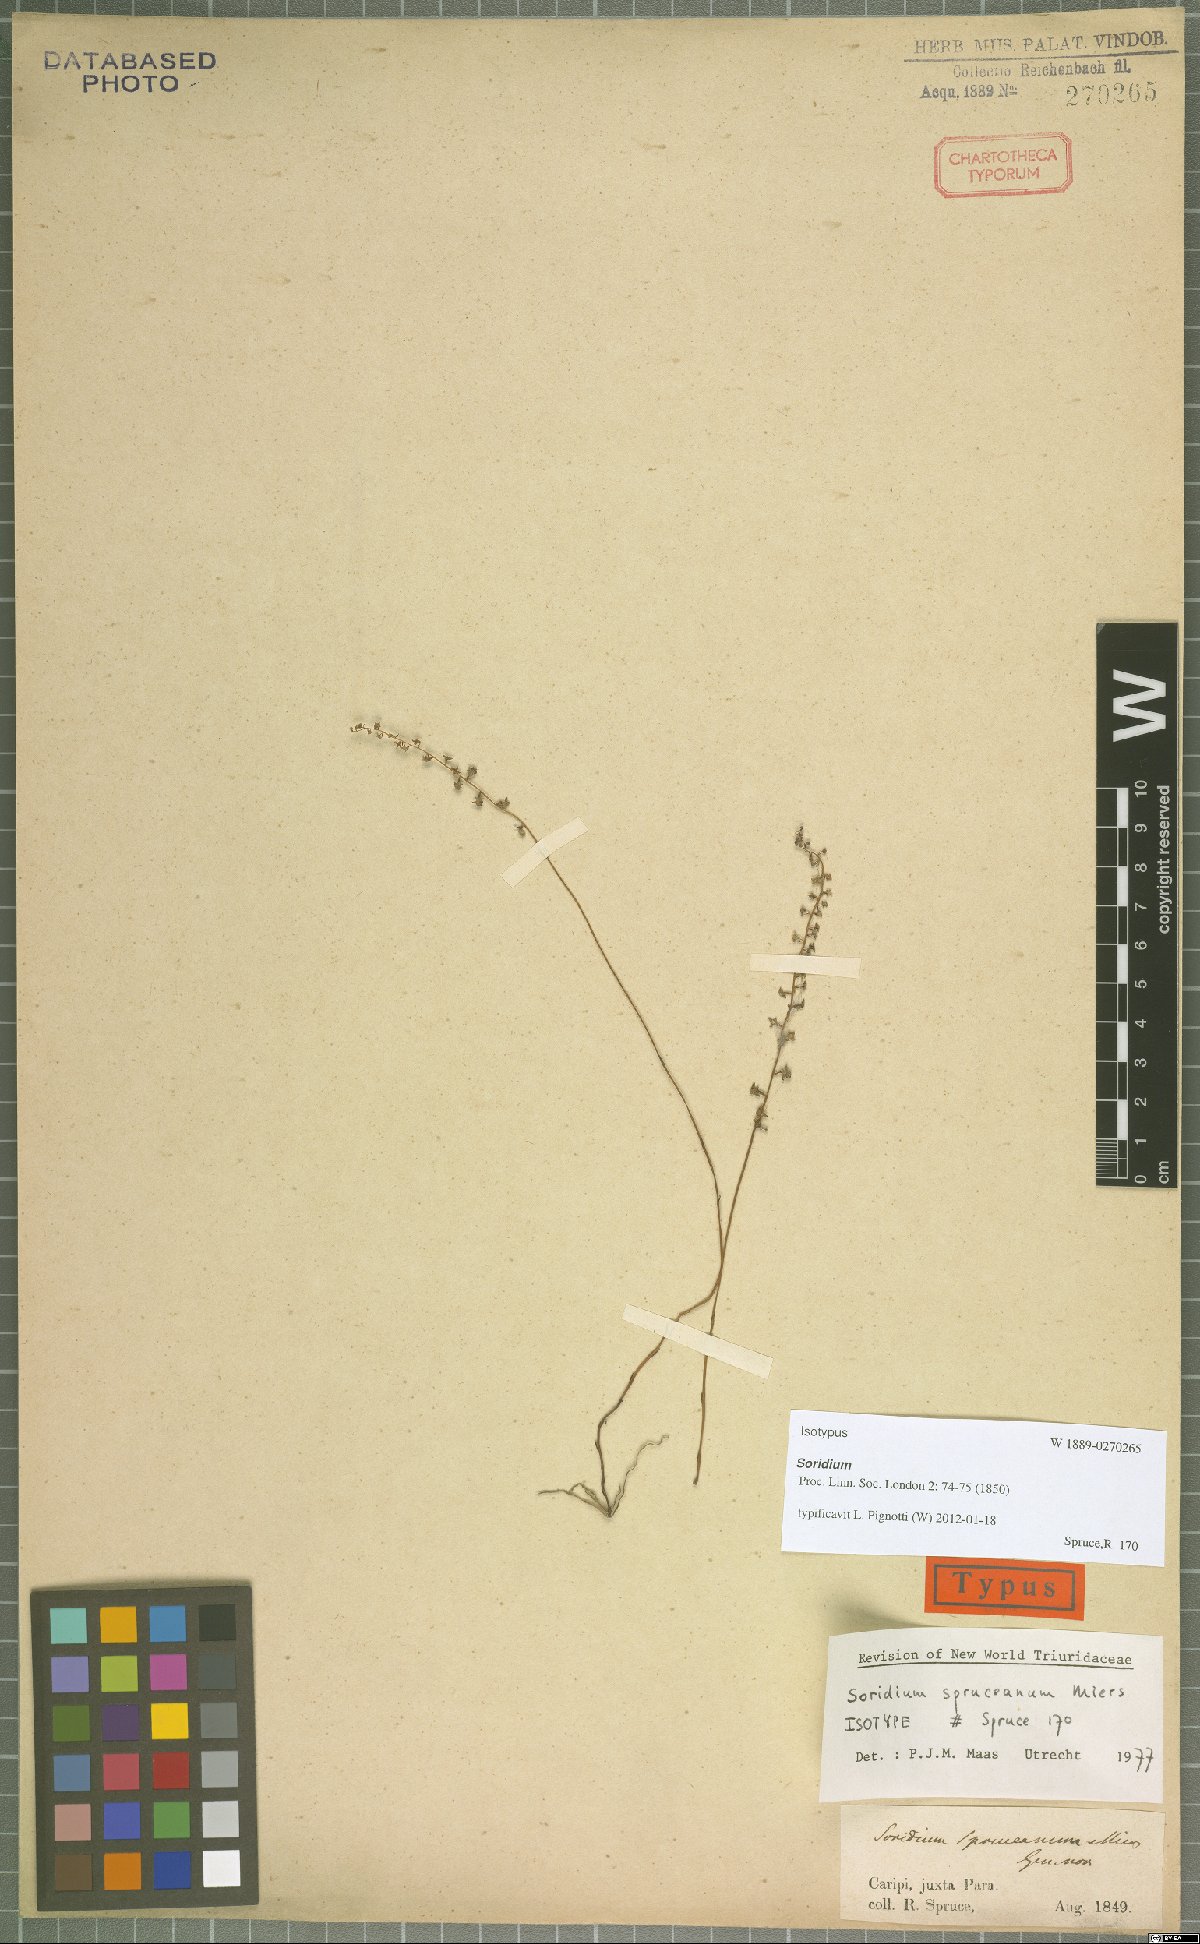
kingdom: Plantae
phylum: Tracheophyta
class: Liliopsida
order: Pandanales
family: Triuridaceae
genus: Soridium
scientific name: Soridium spruceanum
